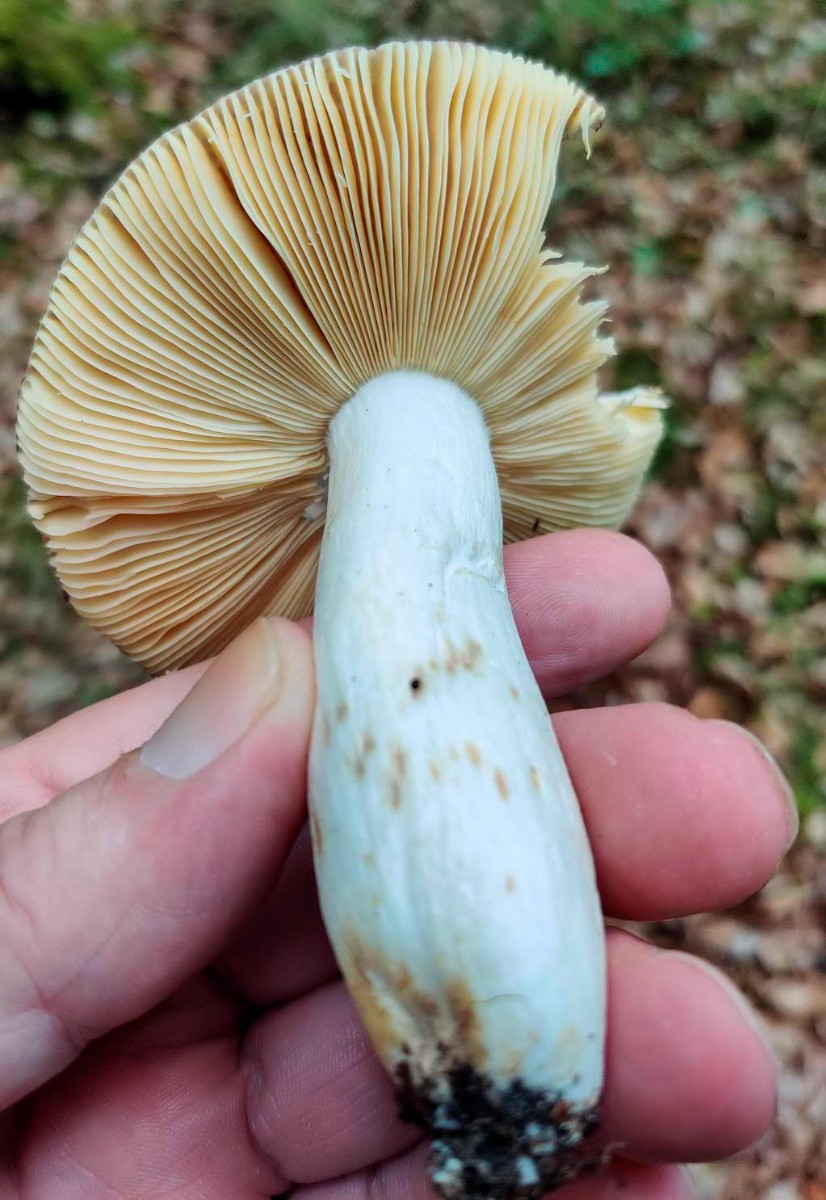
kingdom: Fungi
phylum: Basidiomycota
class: Agaricomycetes
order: Russulales
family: Russulaceae
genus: Russula
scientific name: Russula romellii
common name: romells skørhat
